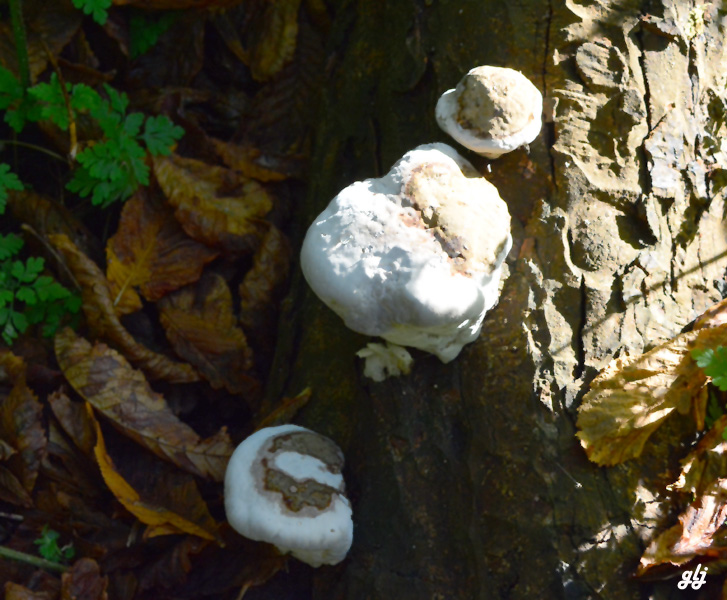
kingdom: Fungi
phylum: Basidiomycota
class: Agaricomycetes
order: Polyporales
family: Polyporaceae
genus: Ganoderma
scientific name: Ganoderma adspersum
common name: grov lakporesvamp
